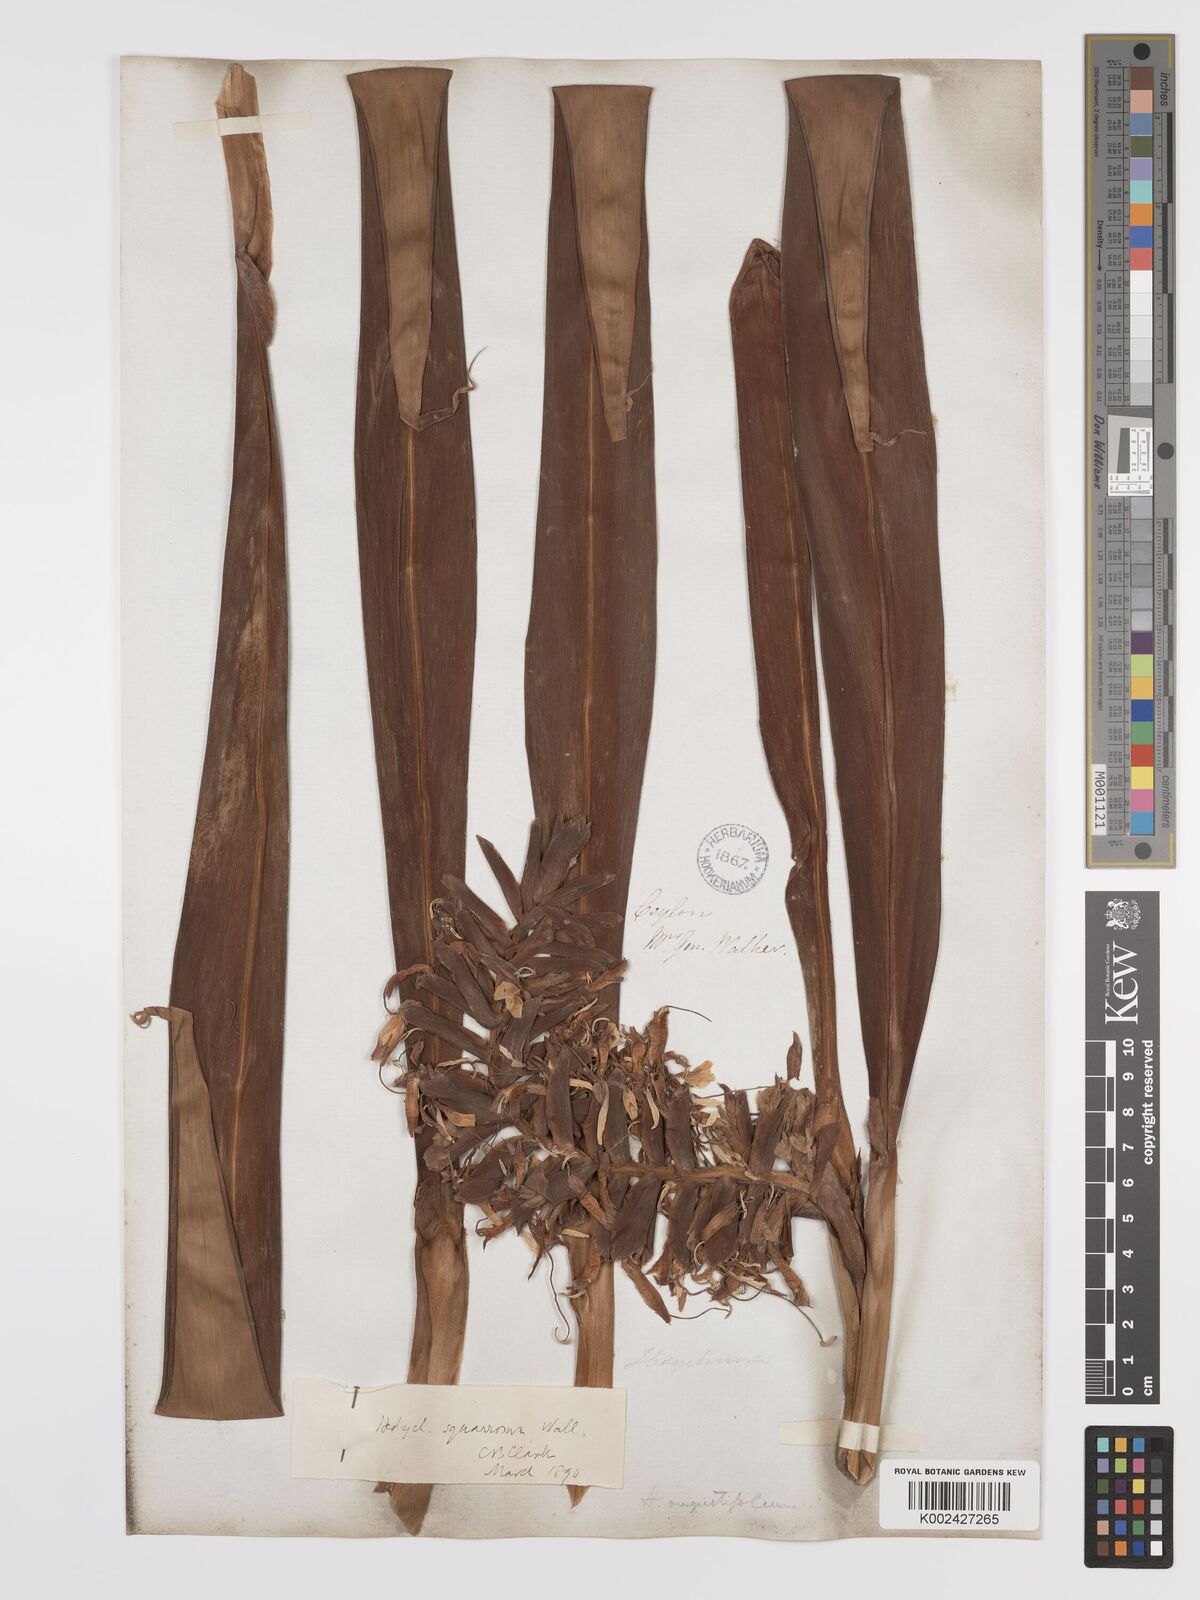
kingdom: Plantae
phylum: Tracheophyta
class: Liliopsida
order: Zingiberales
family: Zingiberaceae
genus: Hedychium
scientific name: Hedychium coccineum
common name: Red ginger-lily
